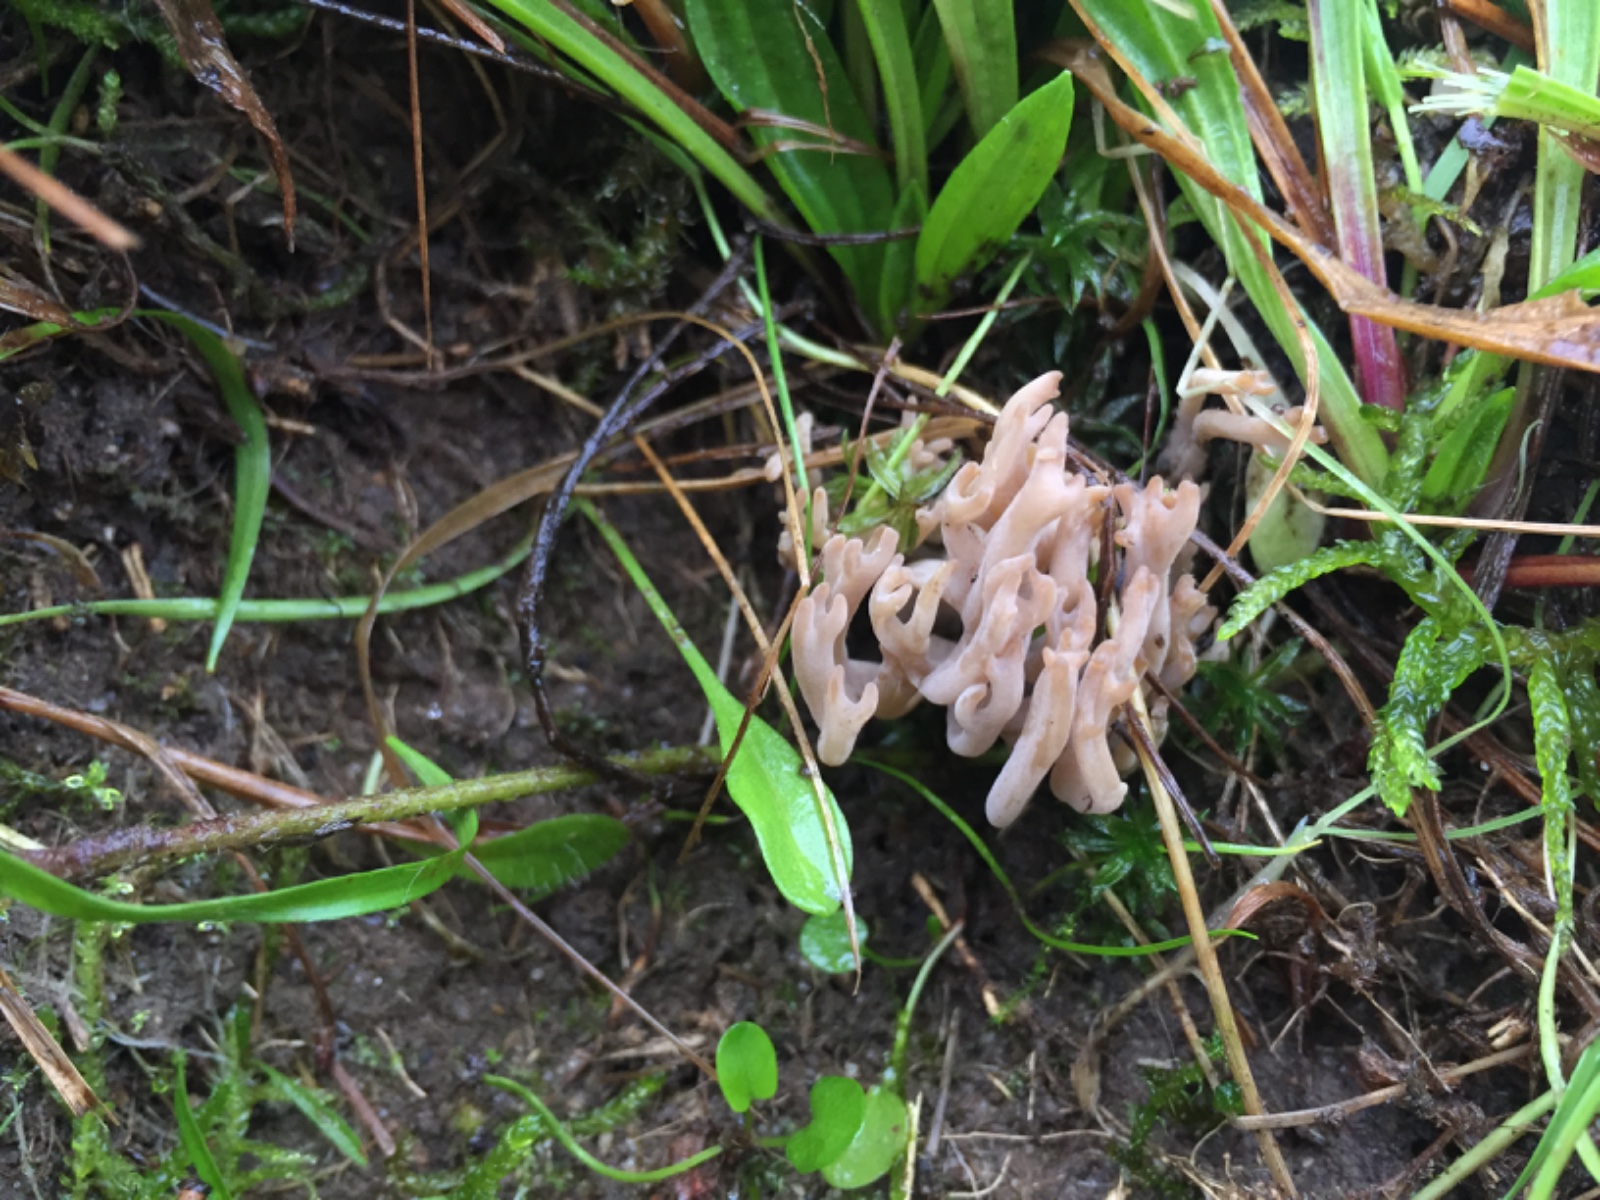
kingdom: Fungi
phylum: Basidiomycota
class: Agaricomycetes
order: Agaricales
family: Clavariaceae
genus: Clavulinopsis
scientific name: Clavulinopsis umbrinella
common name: gulgrå køllesvamp
